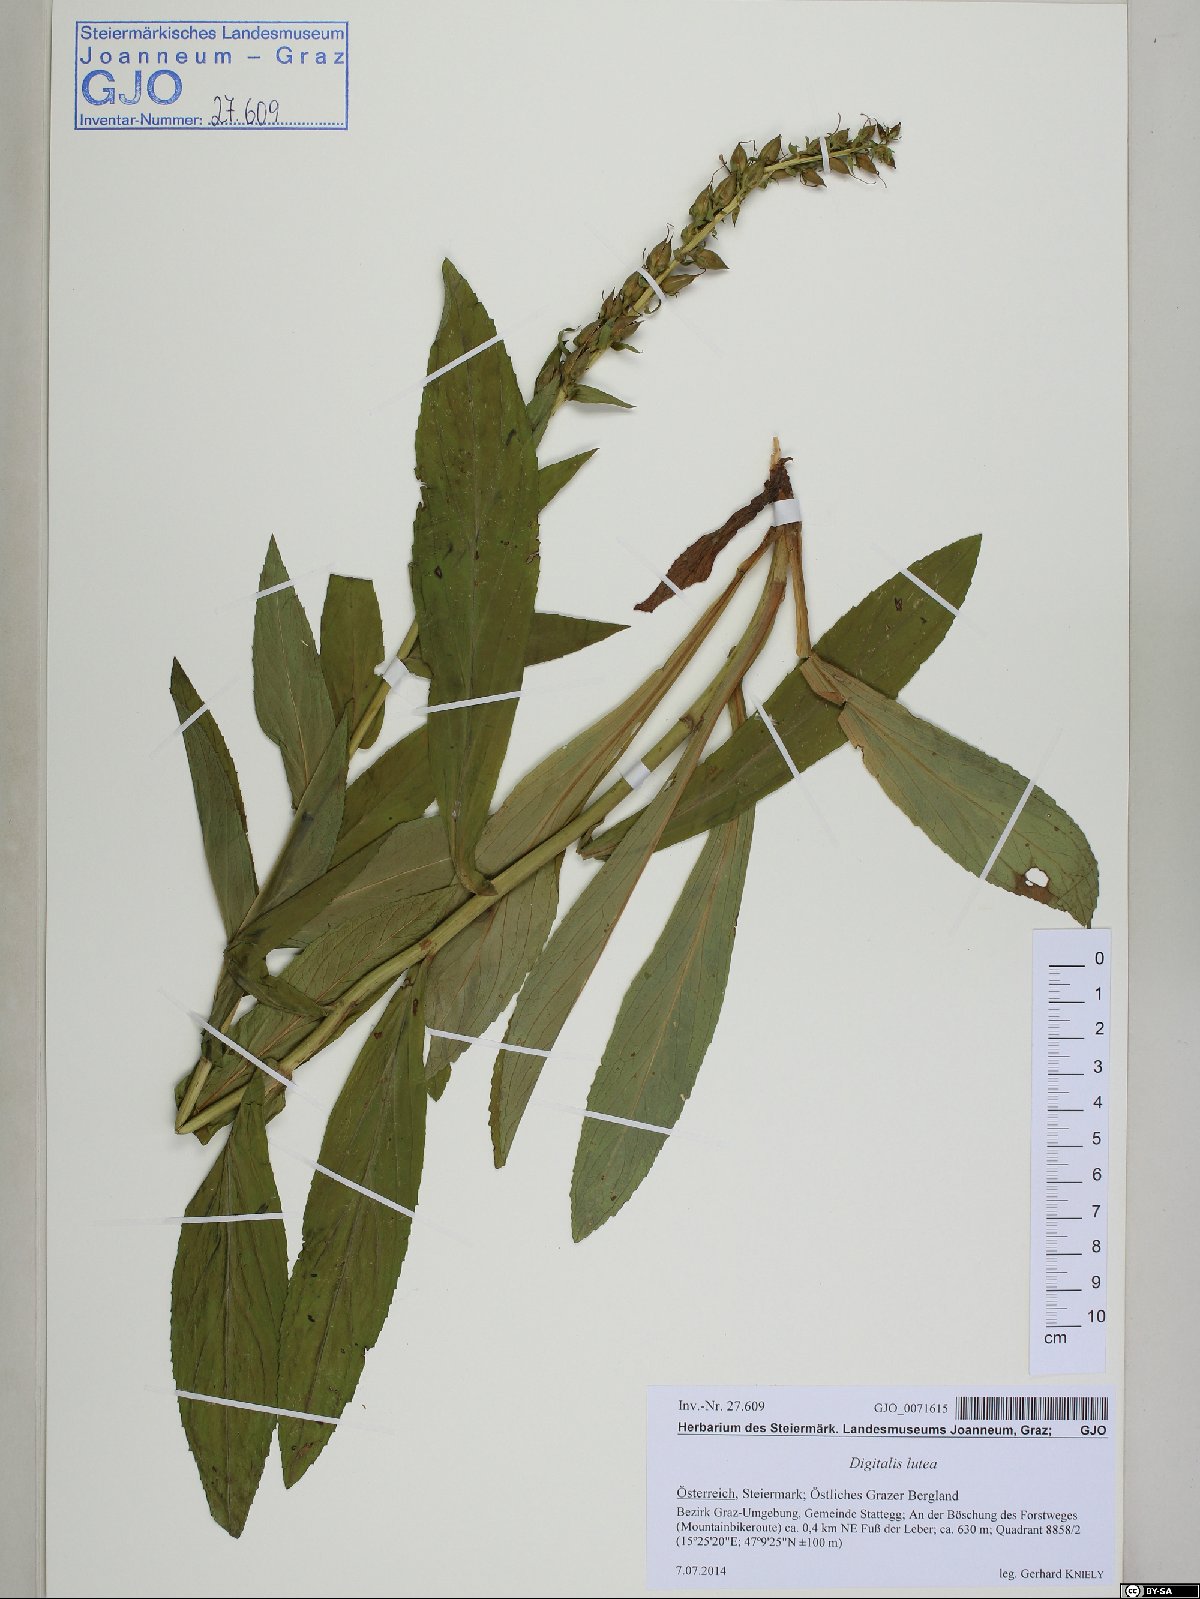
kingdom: Plantae
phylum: Tracheophyta
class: Magnoliopsida
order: Lamiales
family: Plantaginaceae
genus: Digitalis
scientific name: Digitalis lutea
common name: Straw foxglove
